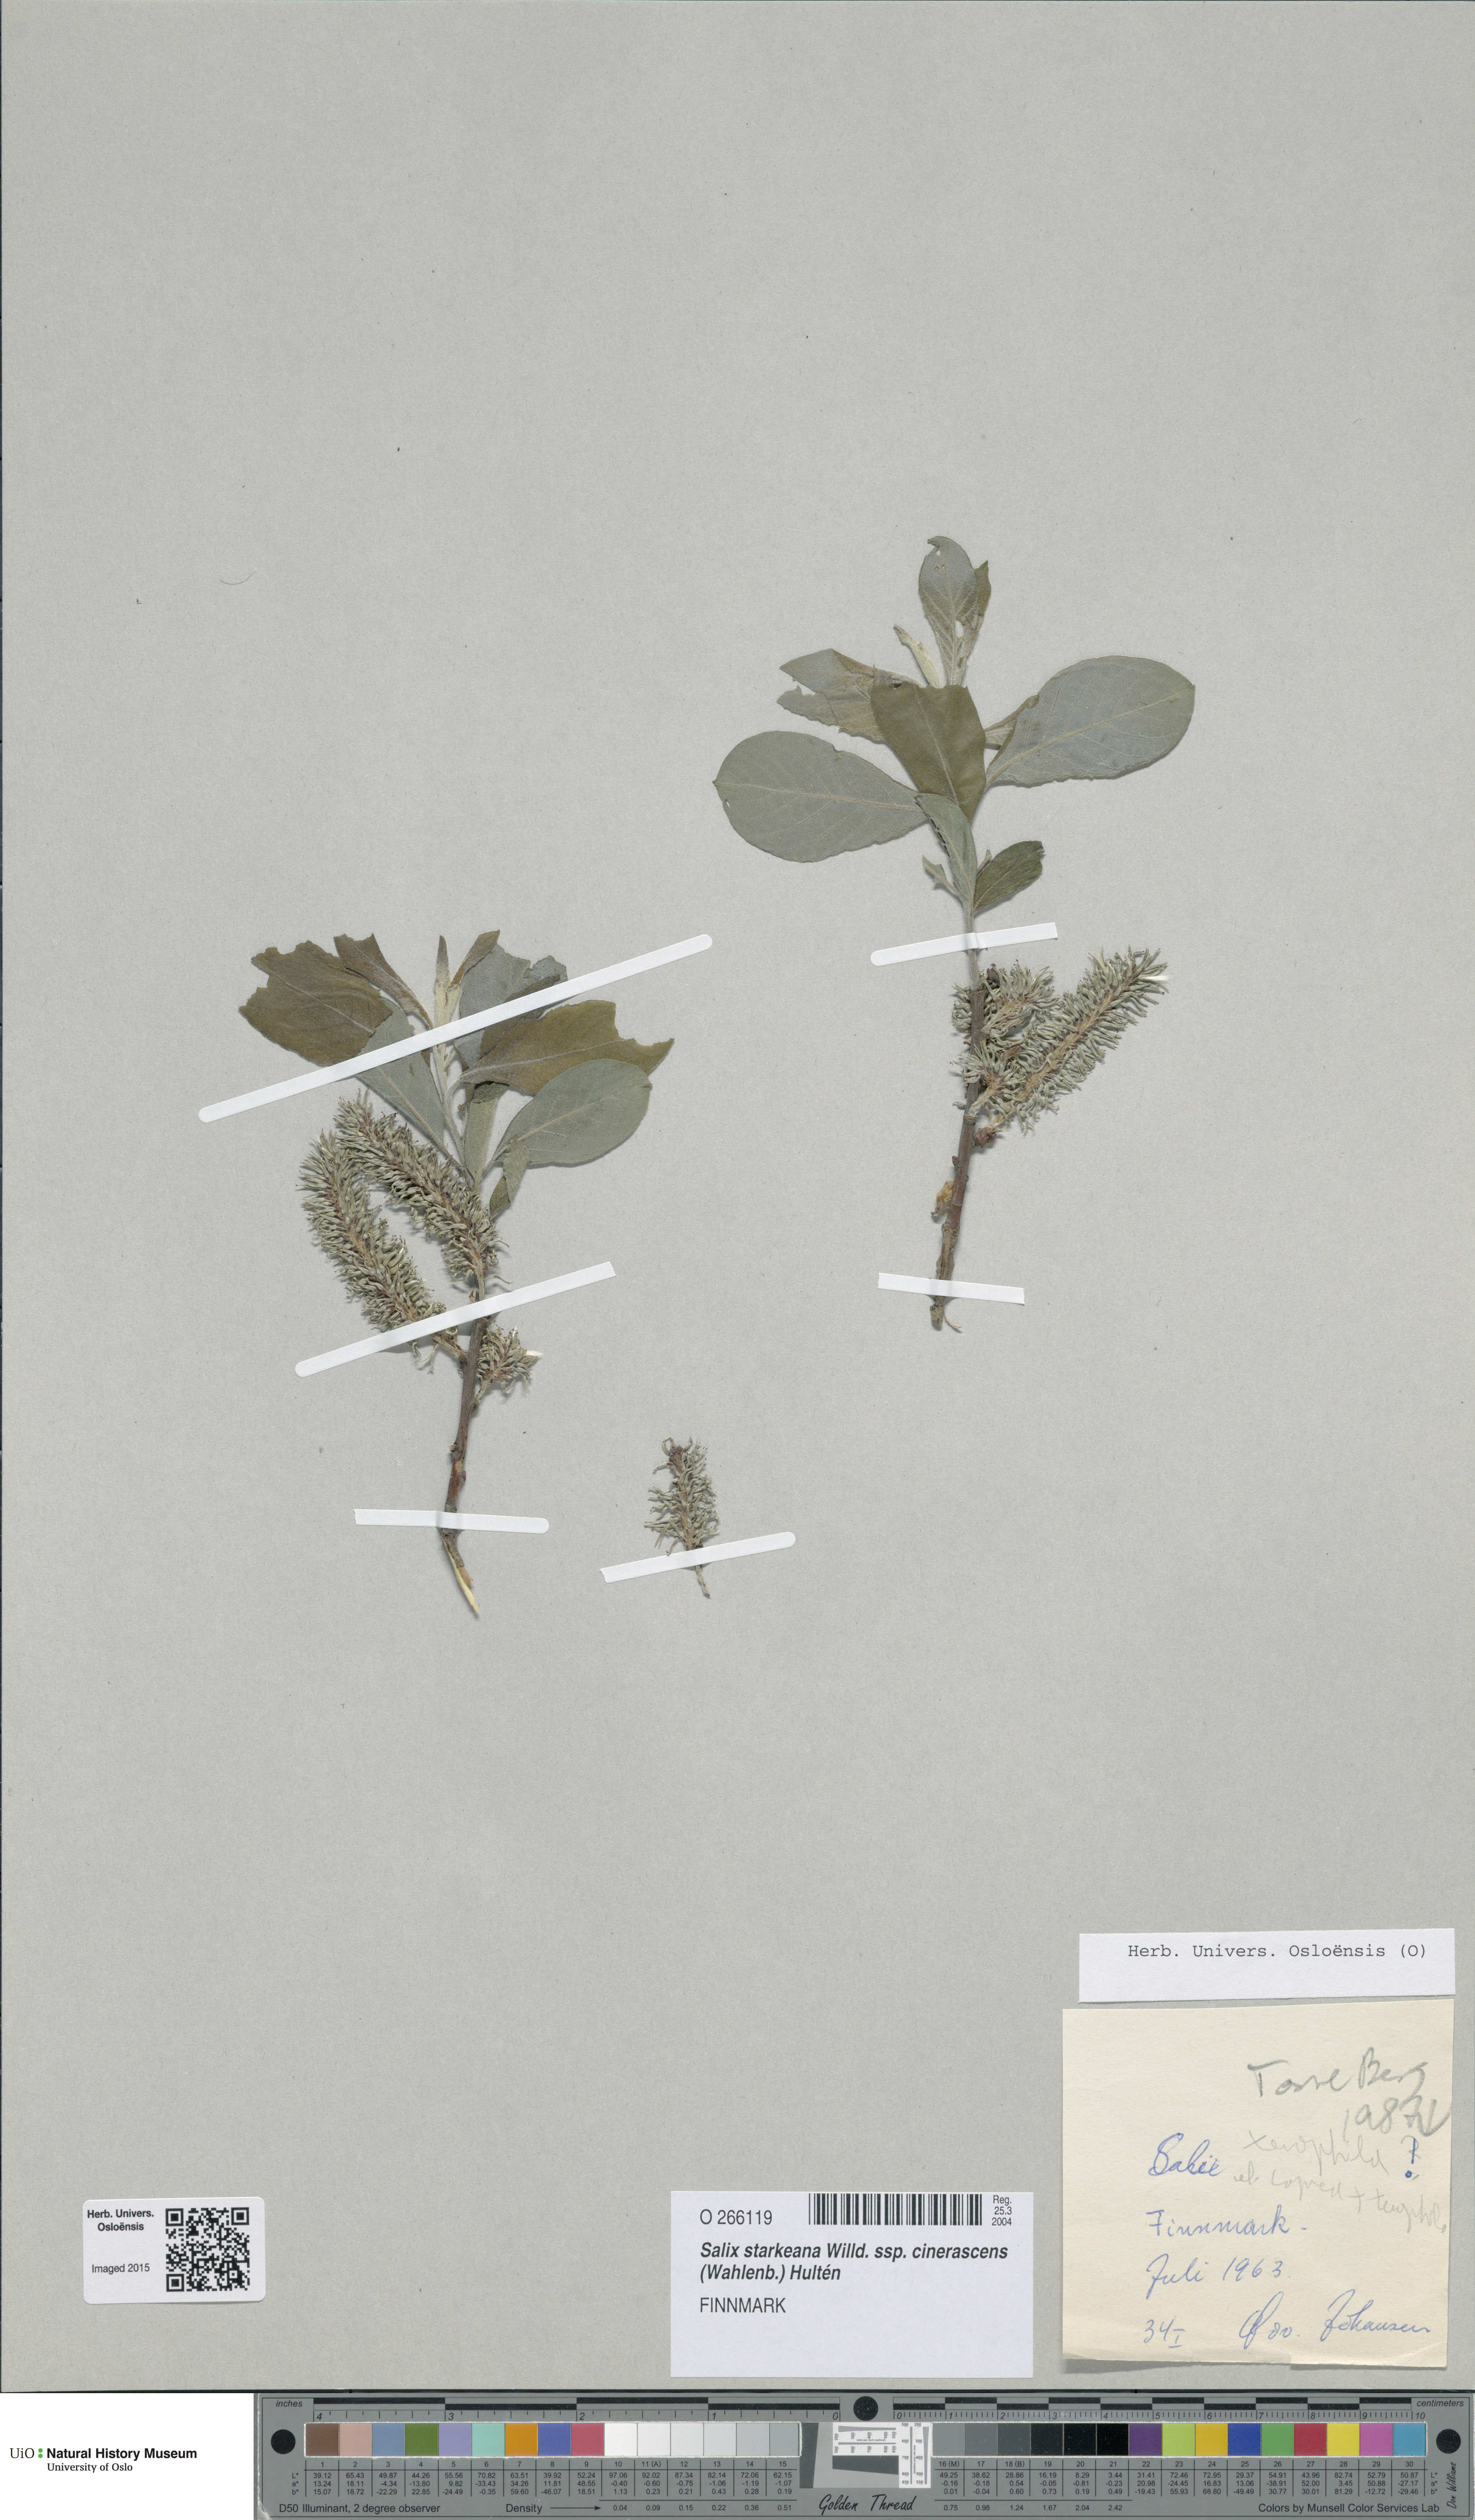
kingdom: Plantae
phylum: Tracheophyta
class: Magnoliopsida
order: Malpighiales
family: Salicaceae
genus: Salix
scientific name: Salix bebbiana
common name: Bebb's willow
